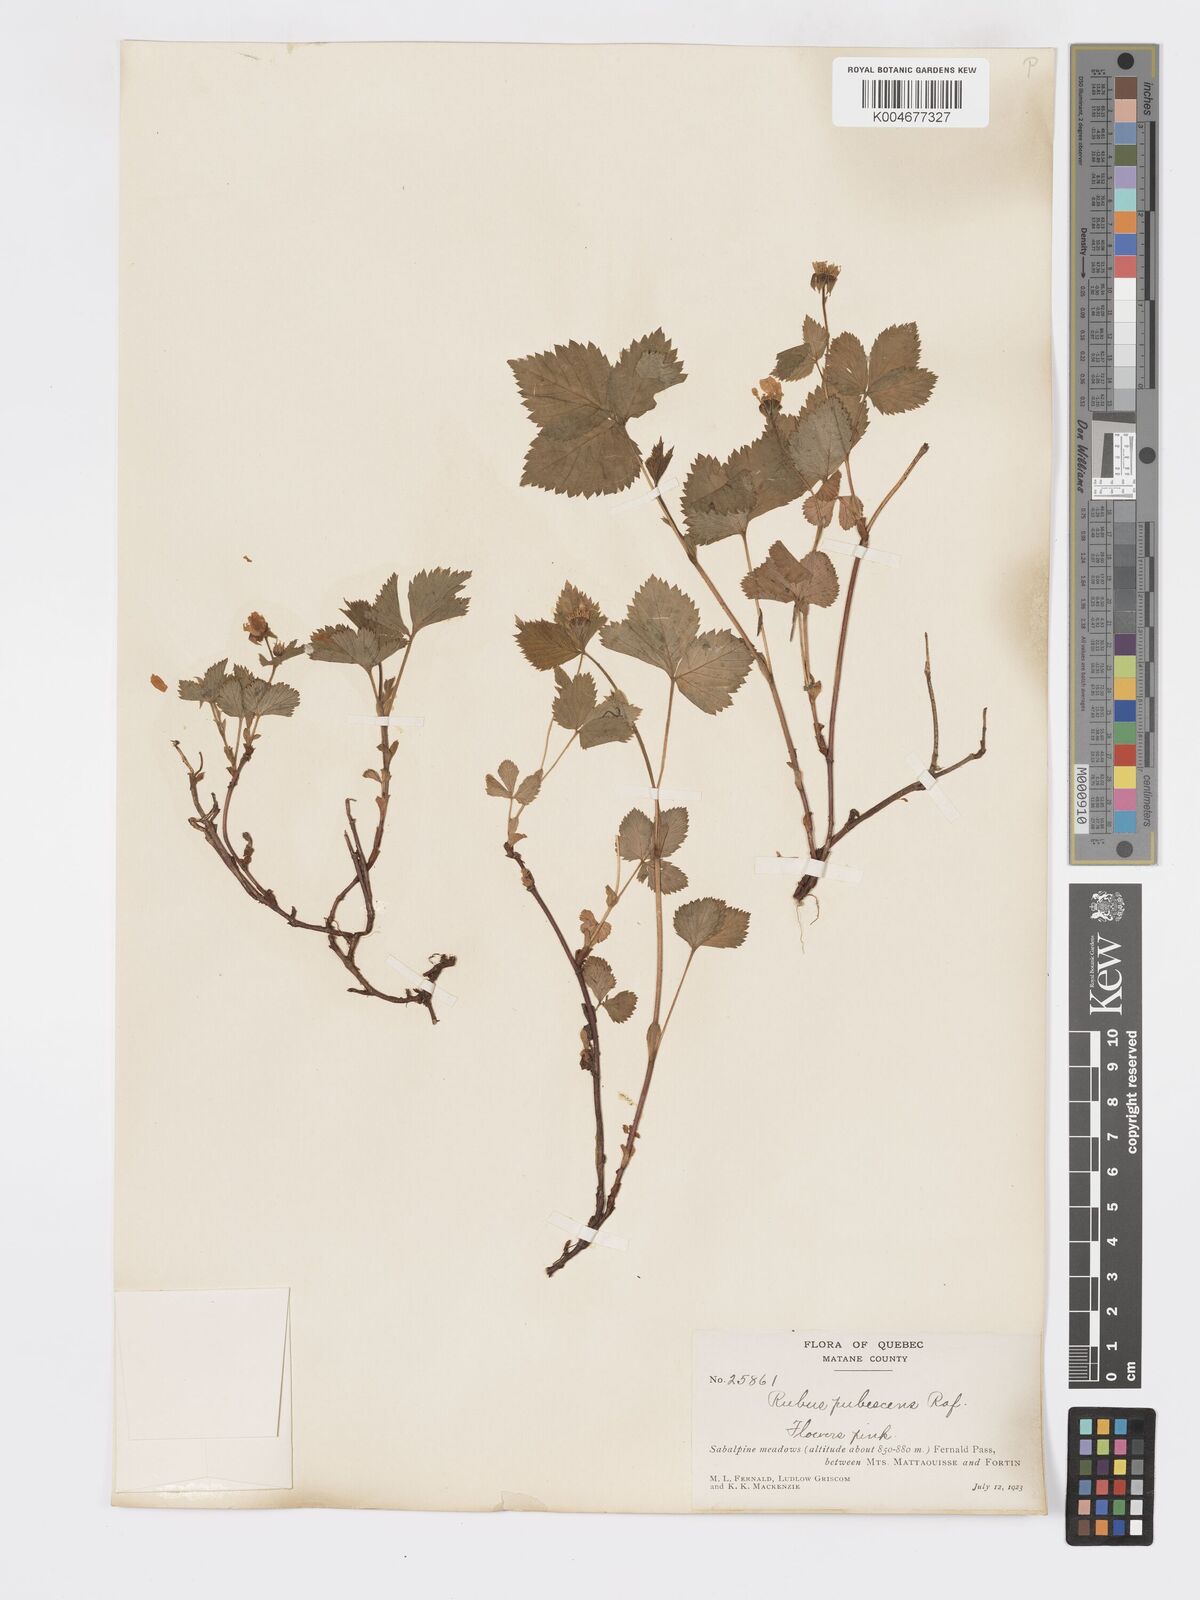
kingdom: Plantae
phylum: Tracheophyta
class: Magnoliopsida
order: Rosales
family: Rosaceae
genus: Rubus
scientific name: Rubus
